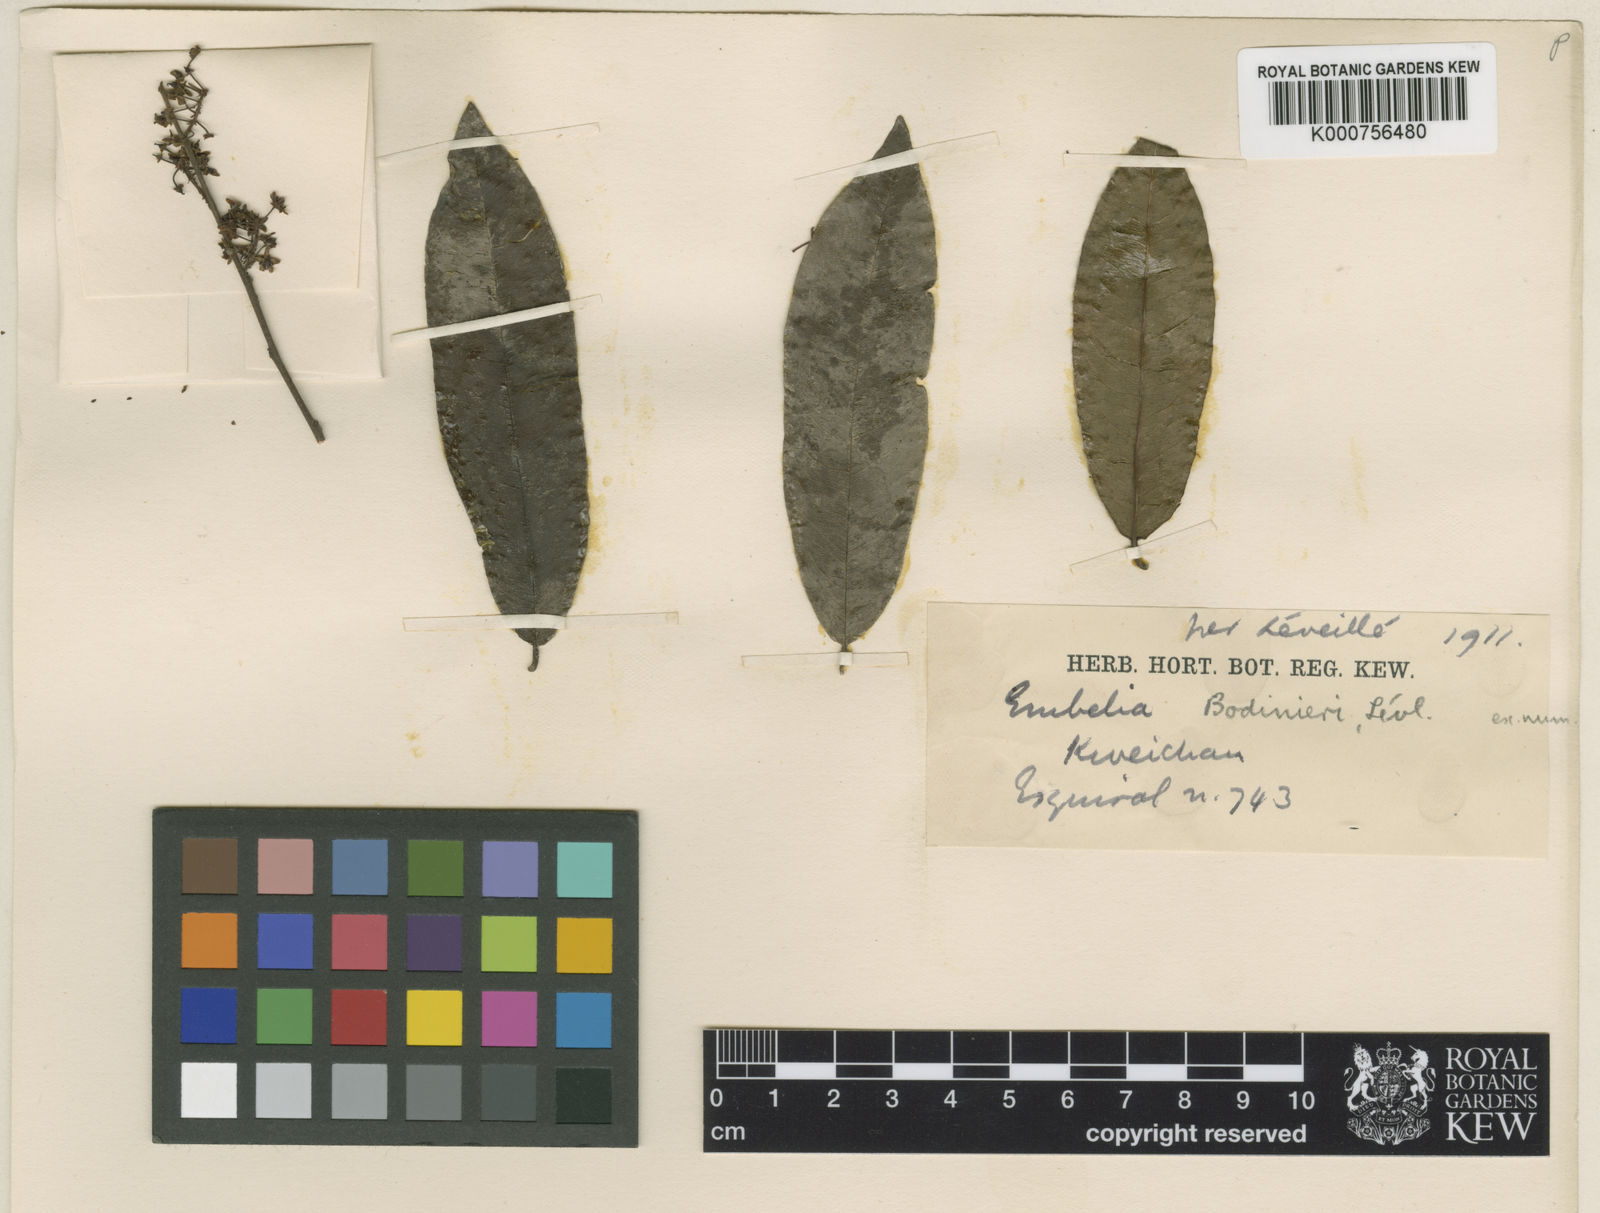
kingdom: Plantae
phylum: Tracheophyta
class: Magnoliopsida
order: Ericales
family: Primulaceae
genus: Embelia
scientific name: Embelia vestita
